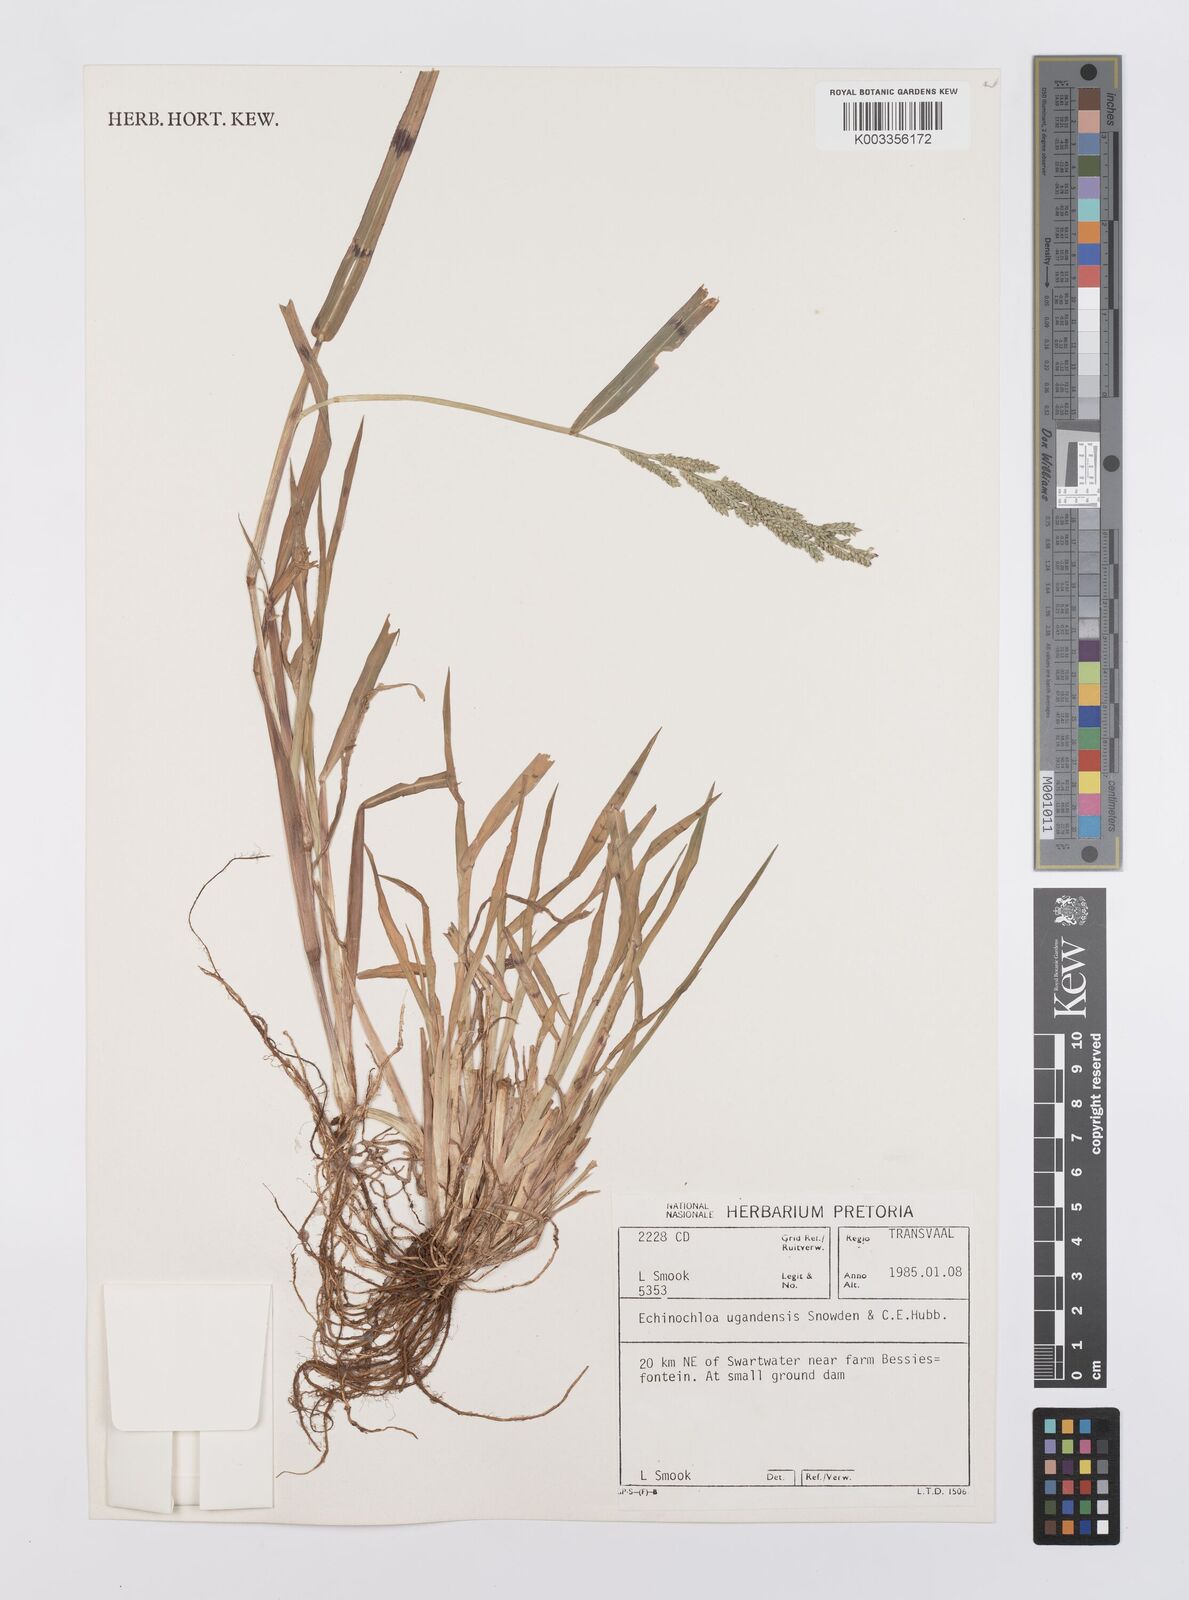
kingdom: Plantae
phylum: Tracheophyta
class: Liliopsida
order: Poales
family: Poaceae
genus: Echinochloa
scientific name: Echinochloa ugandensis
